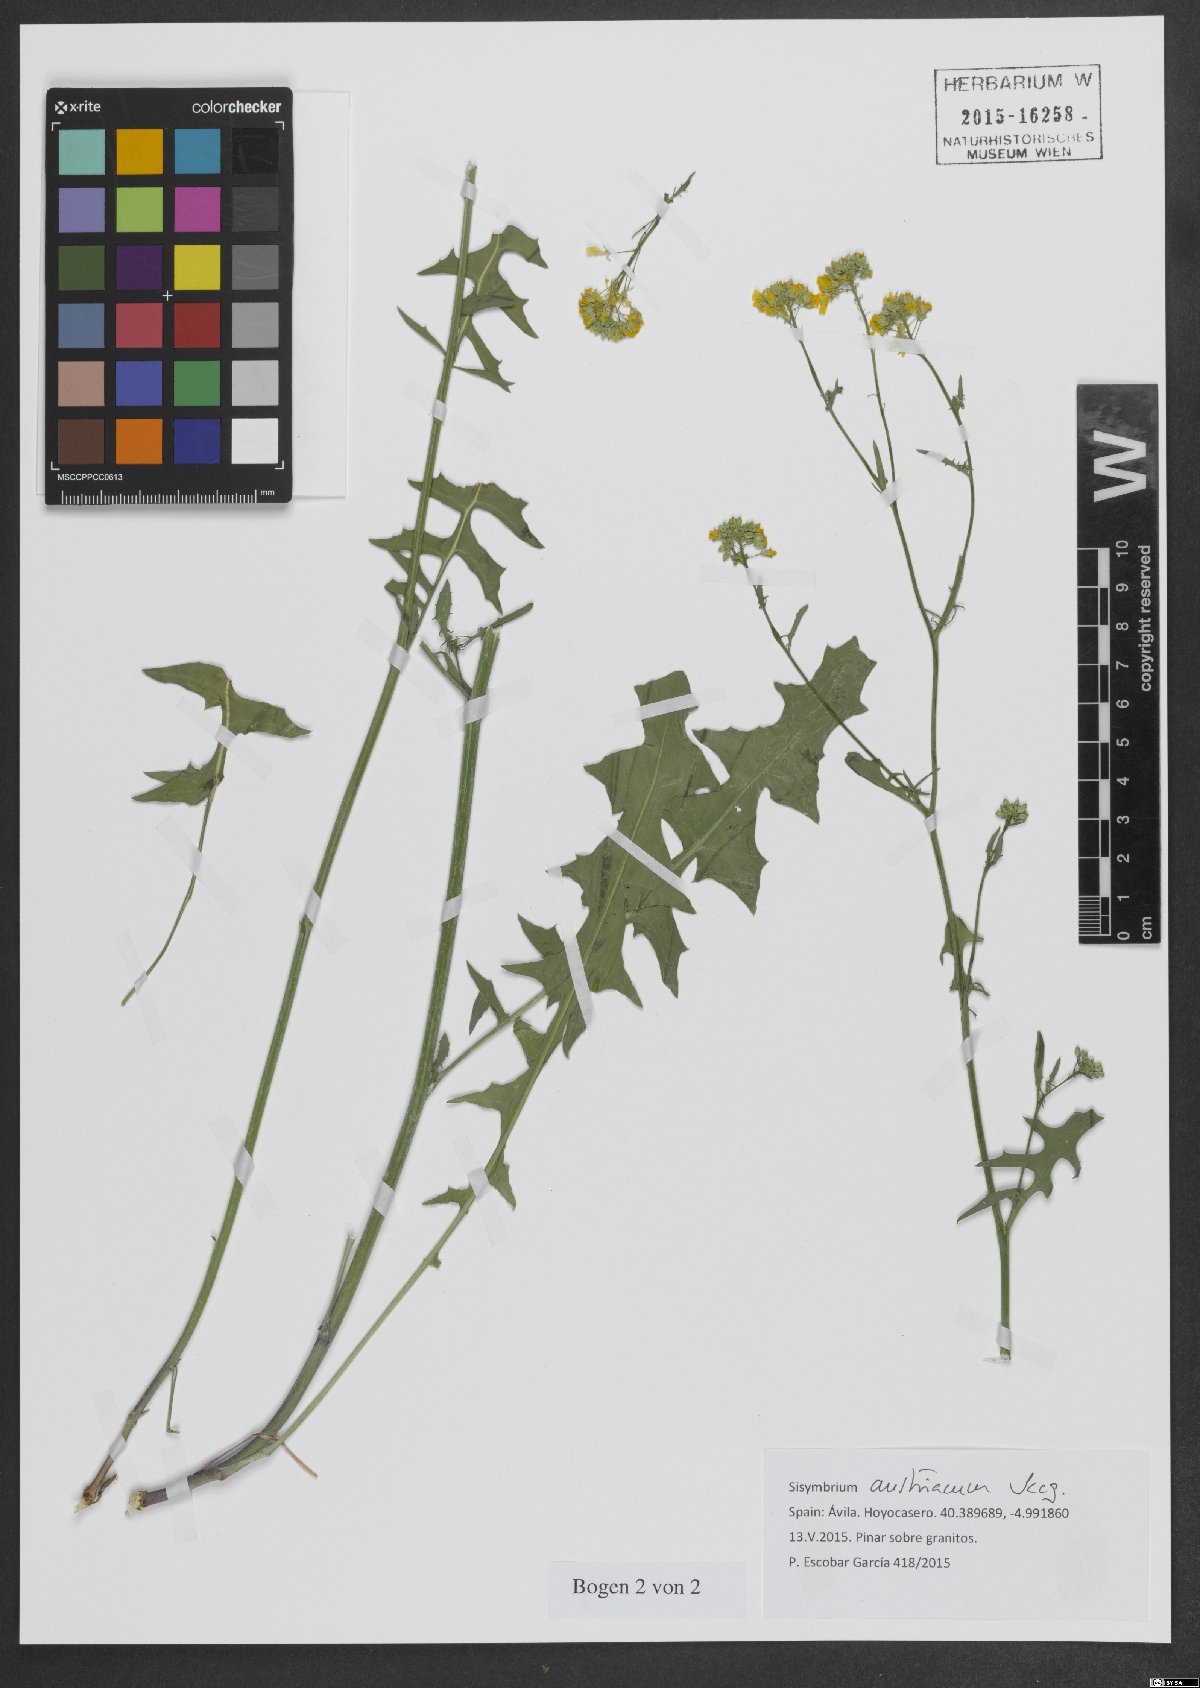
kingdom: Plantae
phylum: Tracheophyta
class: Magnoliopsida
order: Brassicales
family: Brassicaceae
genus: Sisymbrium
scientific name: Sisymbrium austriacum
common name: Jeweled rocket
